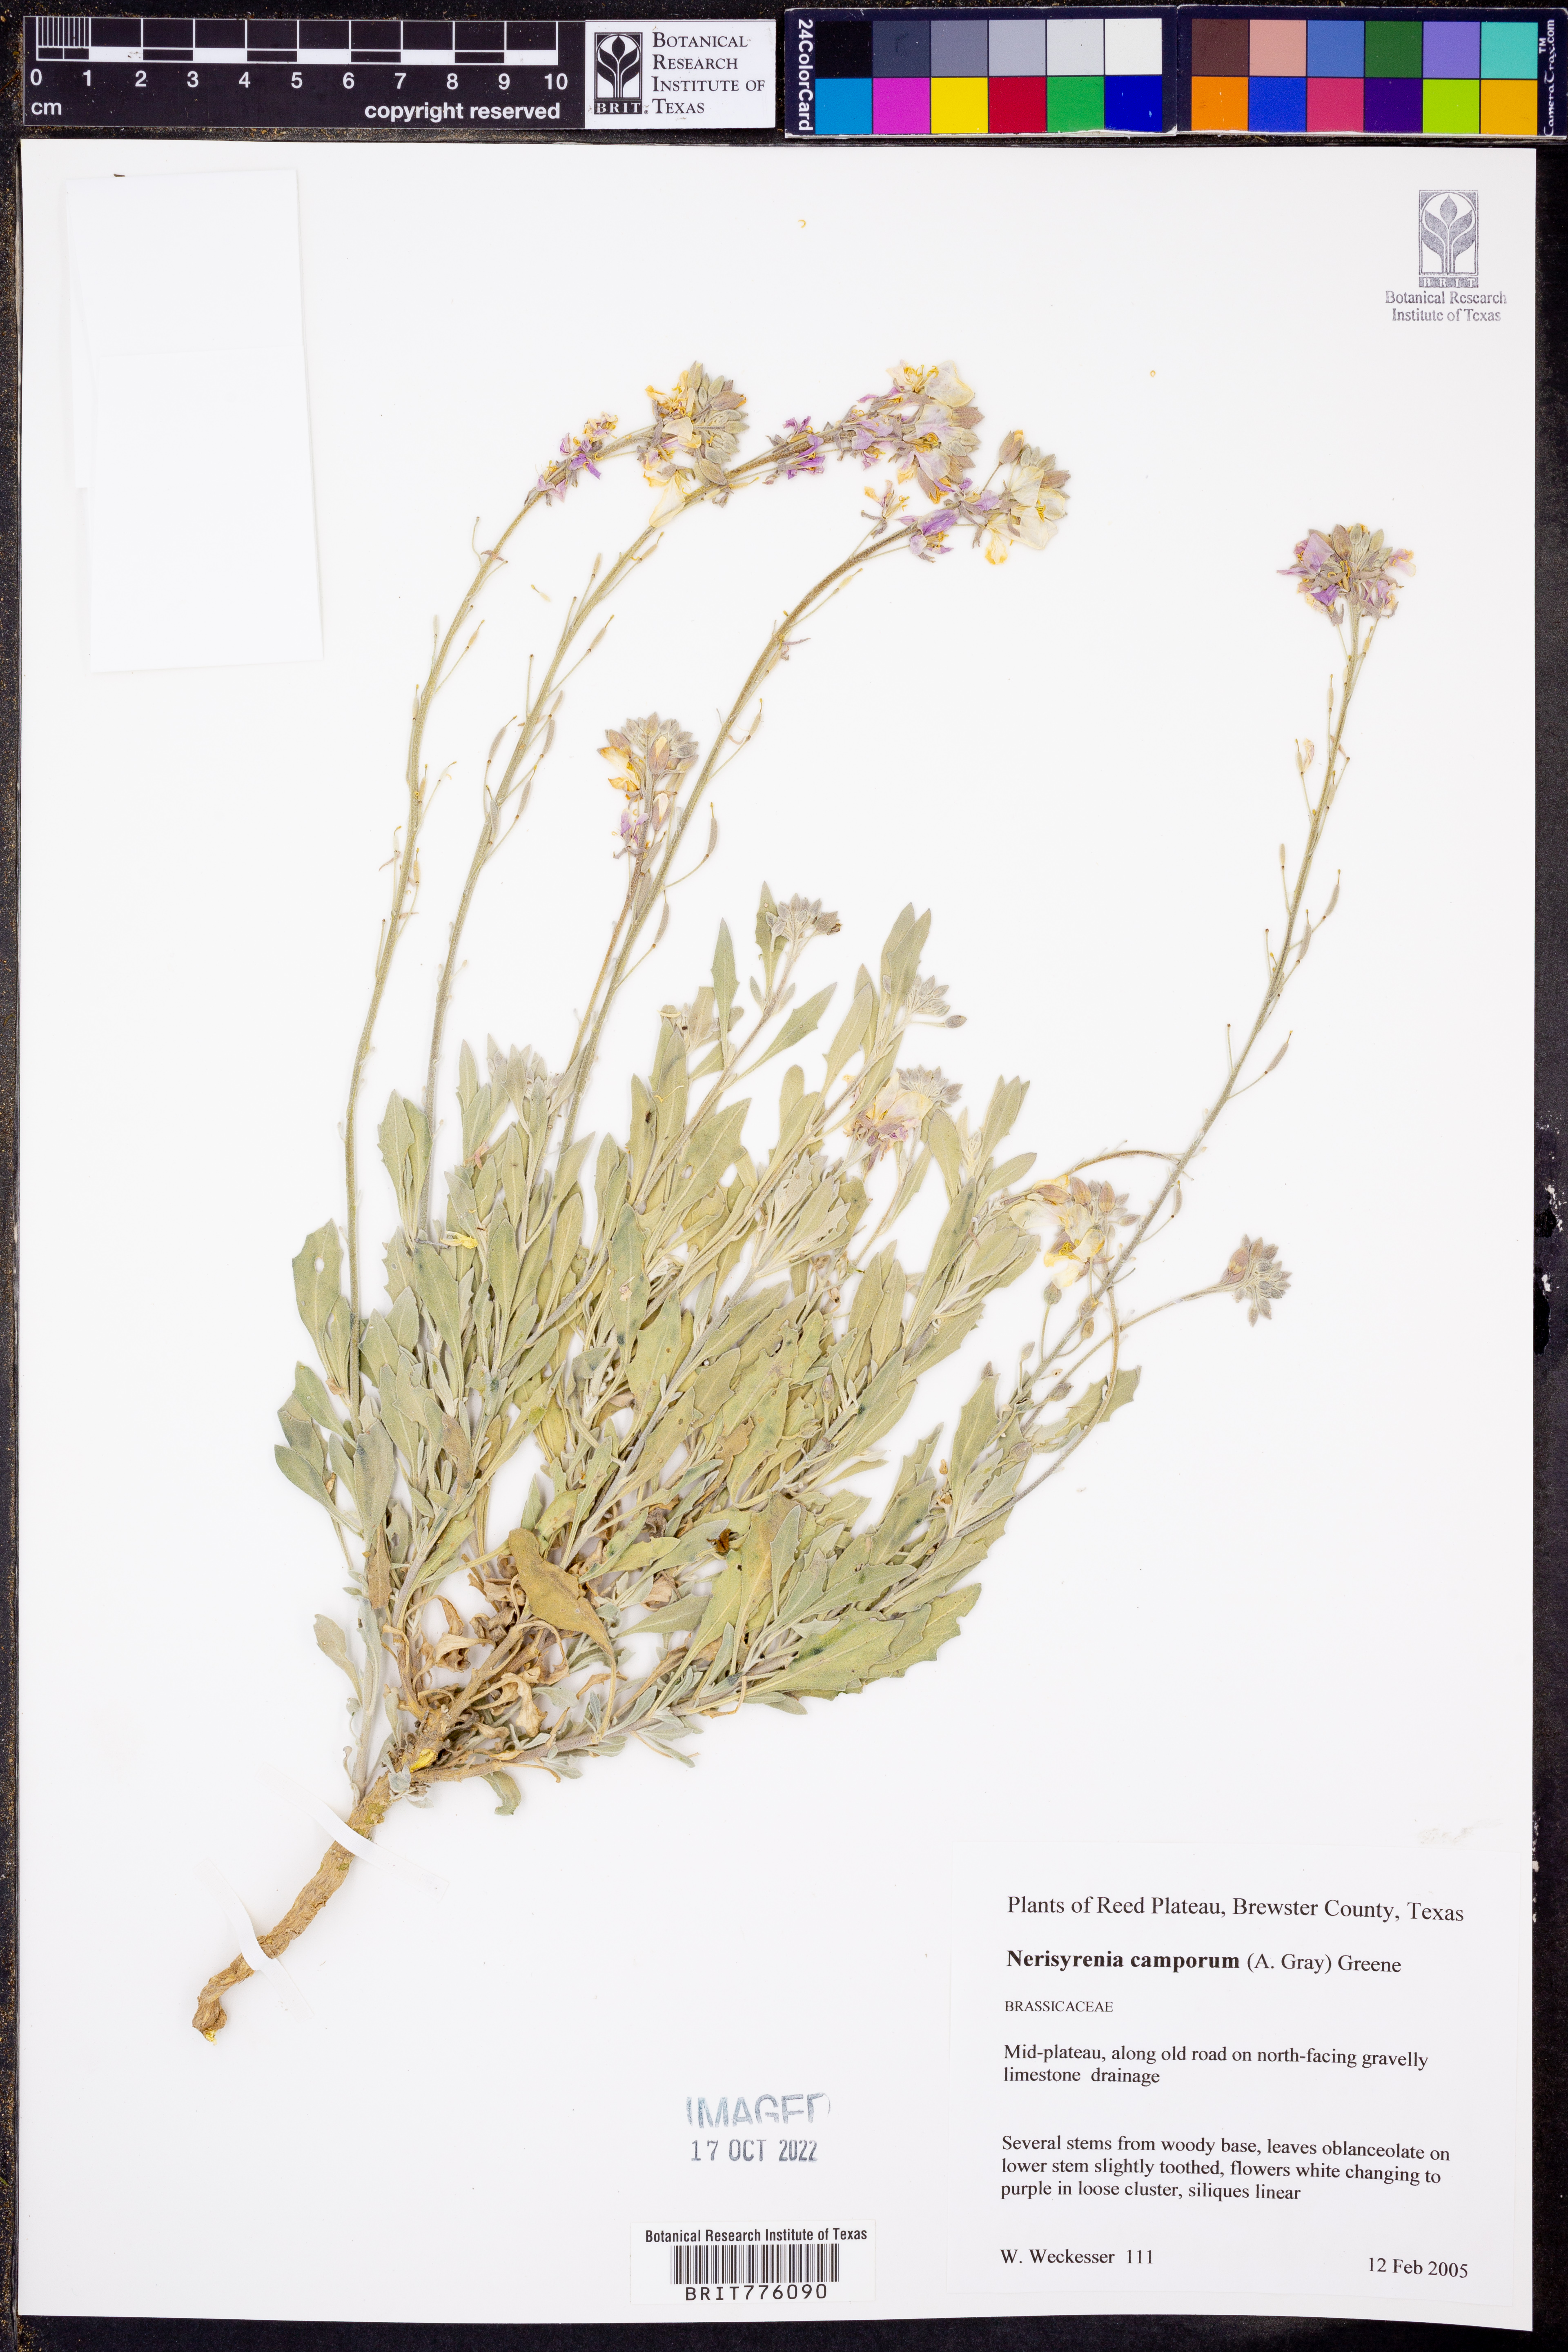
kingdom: Plantae
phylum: Tracheophyta
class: Magnoliopsida
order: Brassicales
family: Brassicaceae
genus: Nerisyrenia
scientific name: Nerisyrenia camporum
